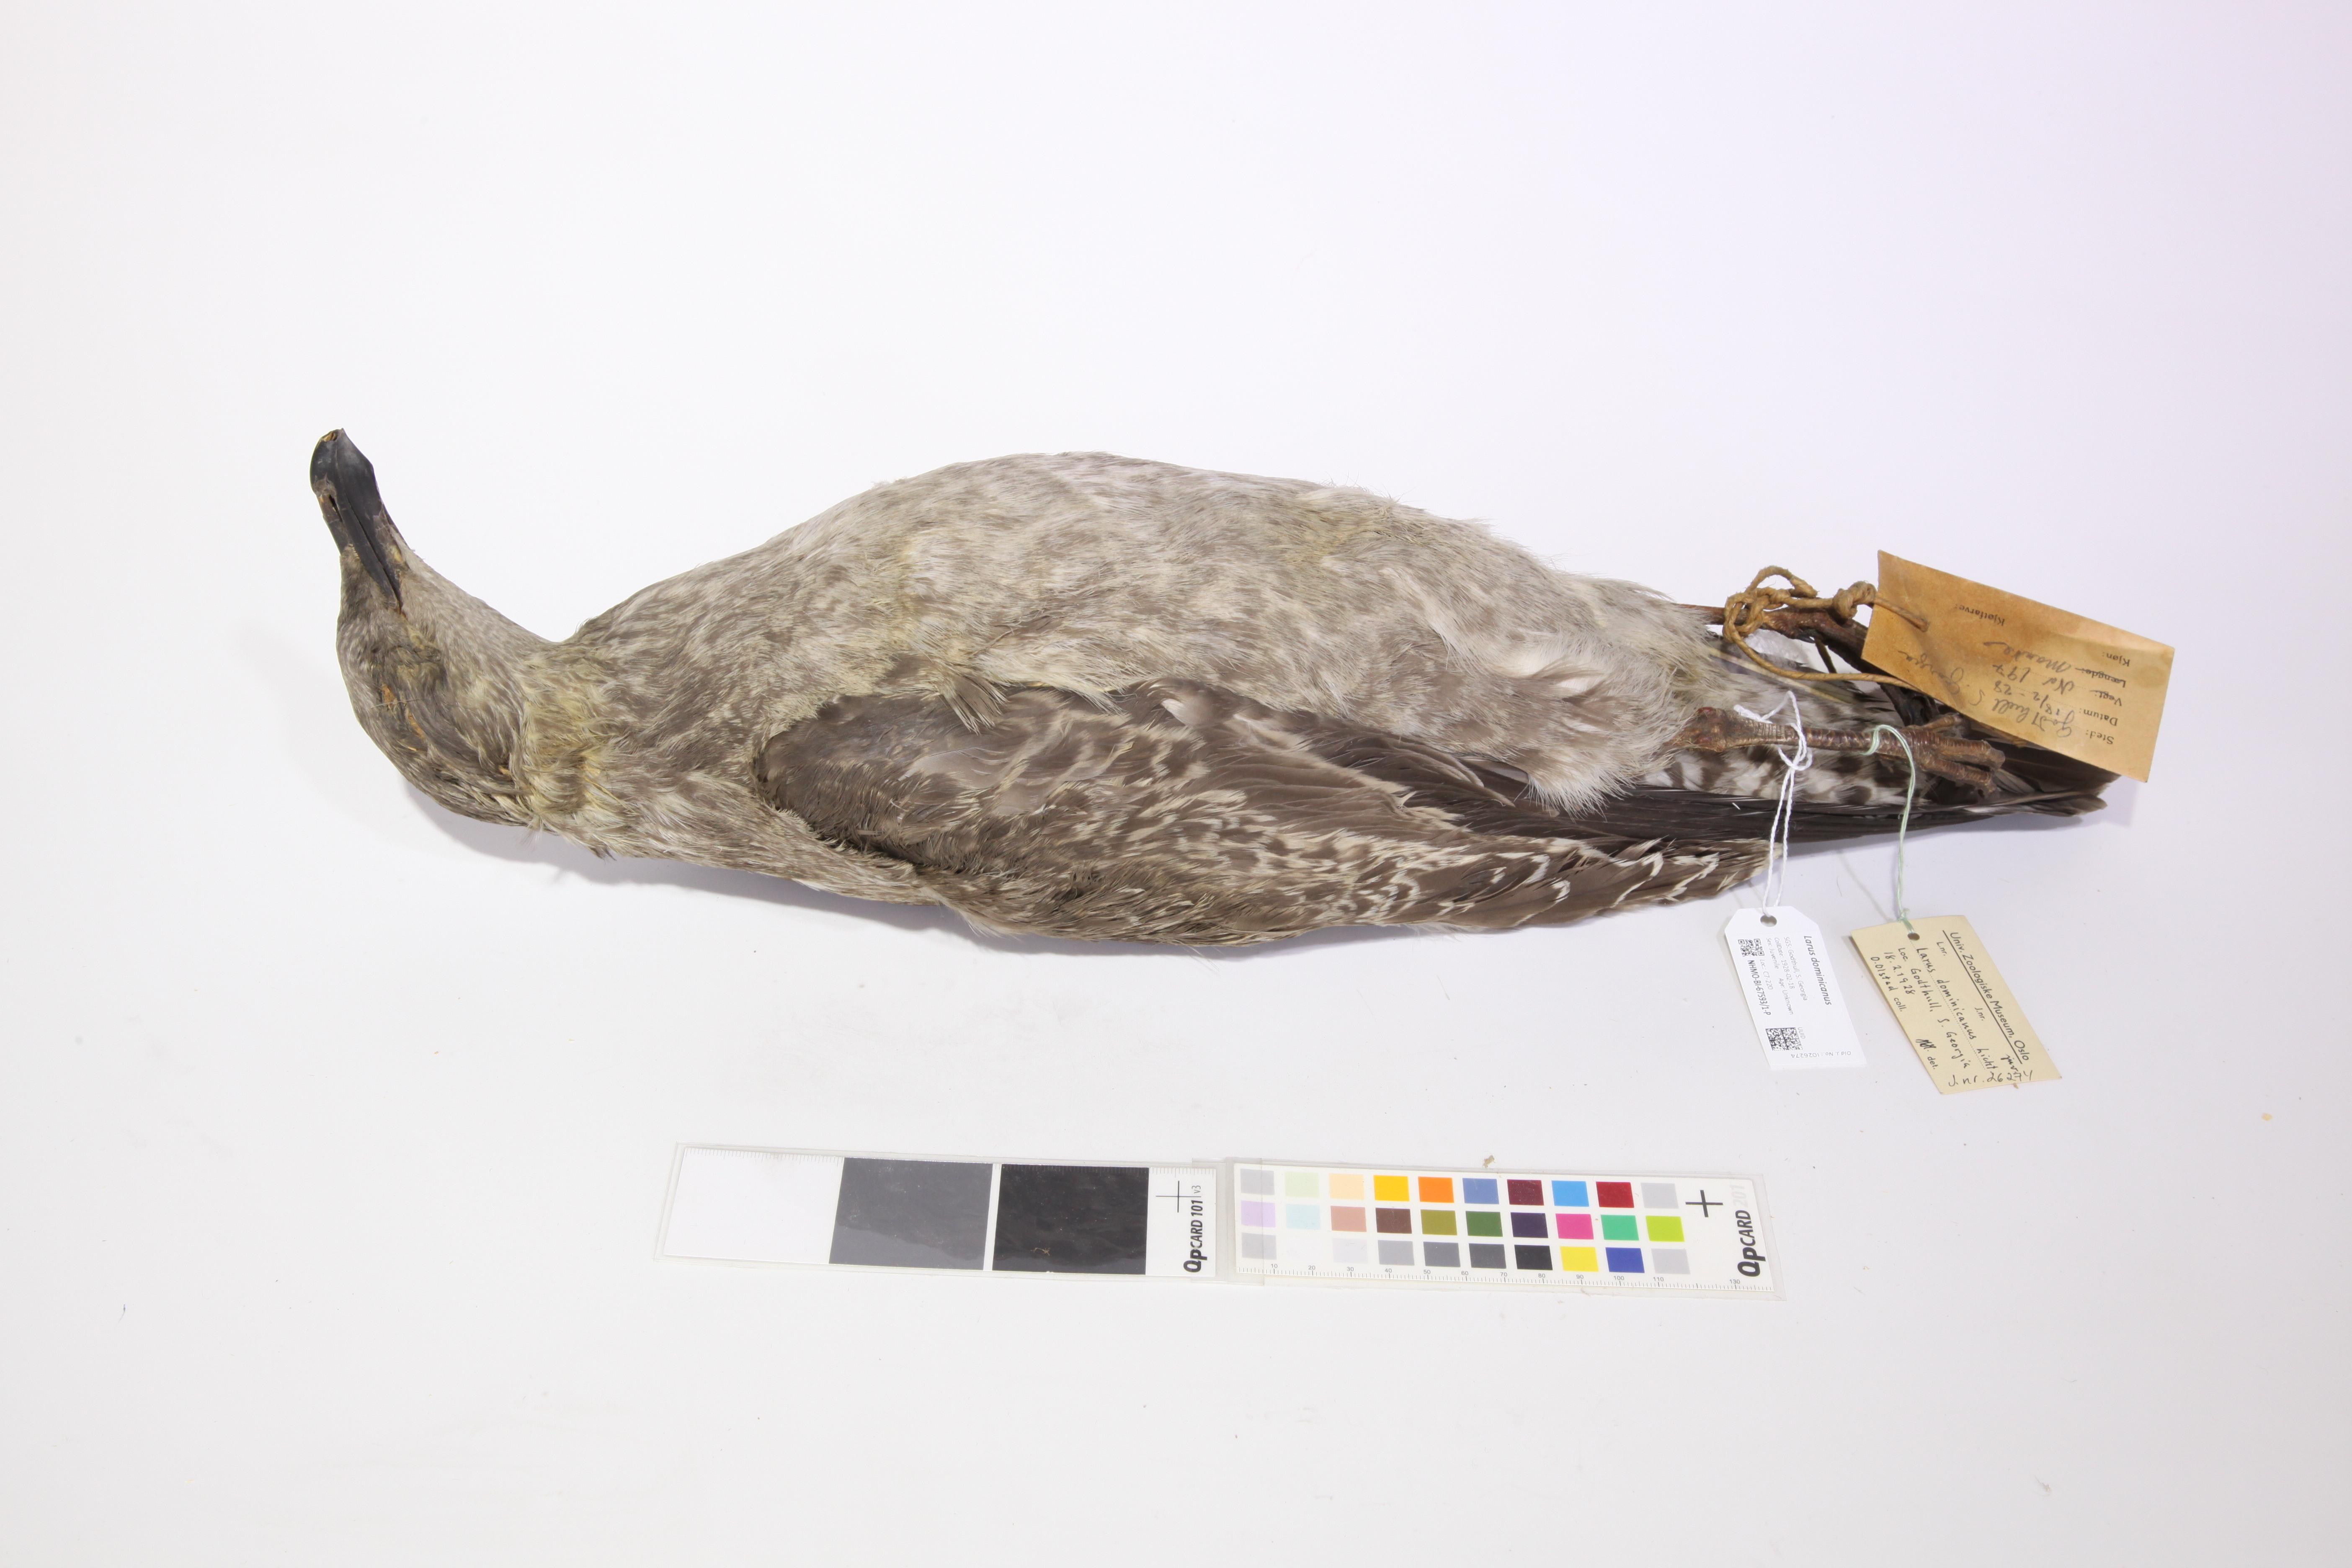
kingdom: Animalia
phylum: Chordata
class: Aves
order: Charadriiformes
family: Laridae
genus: Larus
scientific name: Larus dominicanus
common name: Kelp gull
